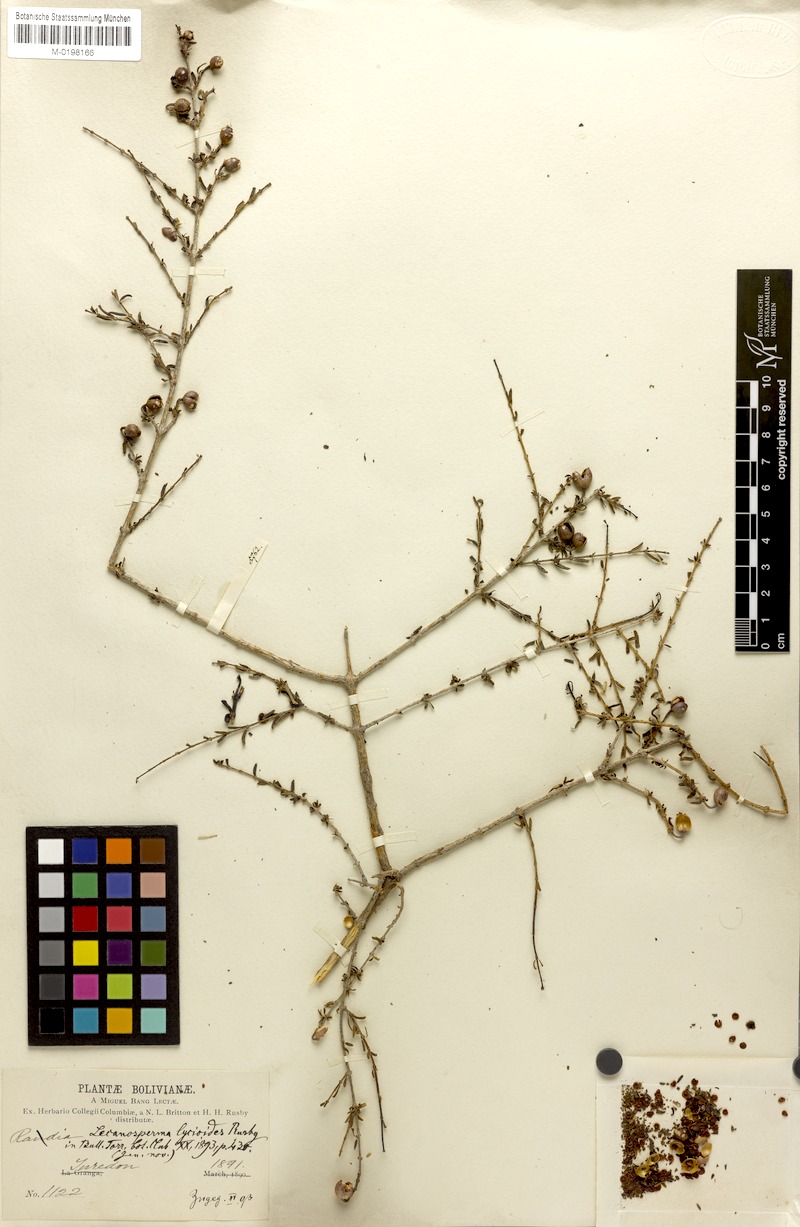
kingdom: Plantae
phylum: Tracheophyta
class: Magnoliopsida
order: Gentianales
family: Rubiaceae
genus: Heterophyllaea
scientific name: Heterophyllaea lycioides
